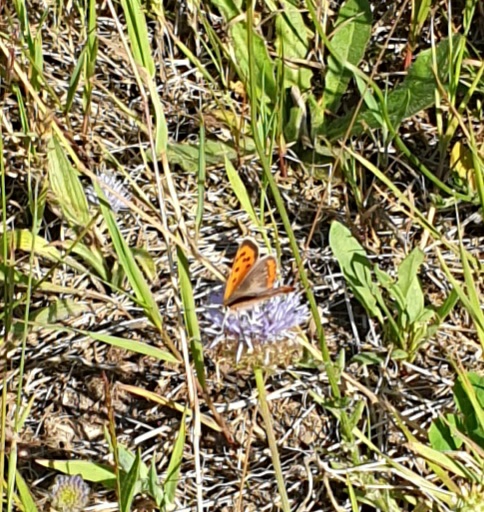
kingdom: Animalia
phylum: Arthropoda
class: Insecta
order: Lepidoptera
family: Lycaenidae
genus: Lycaena
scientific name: Lycaena phlaeas
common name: Lille ildfugl
